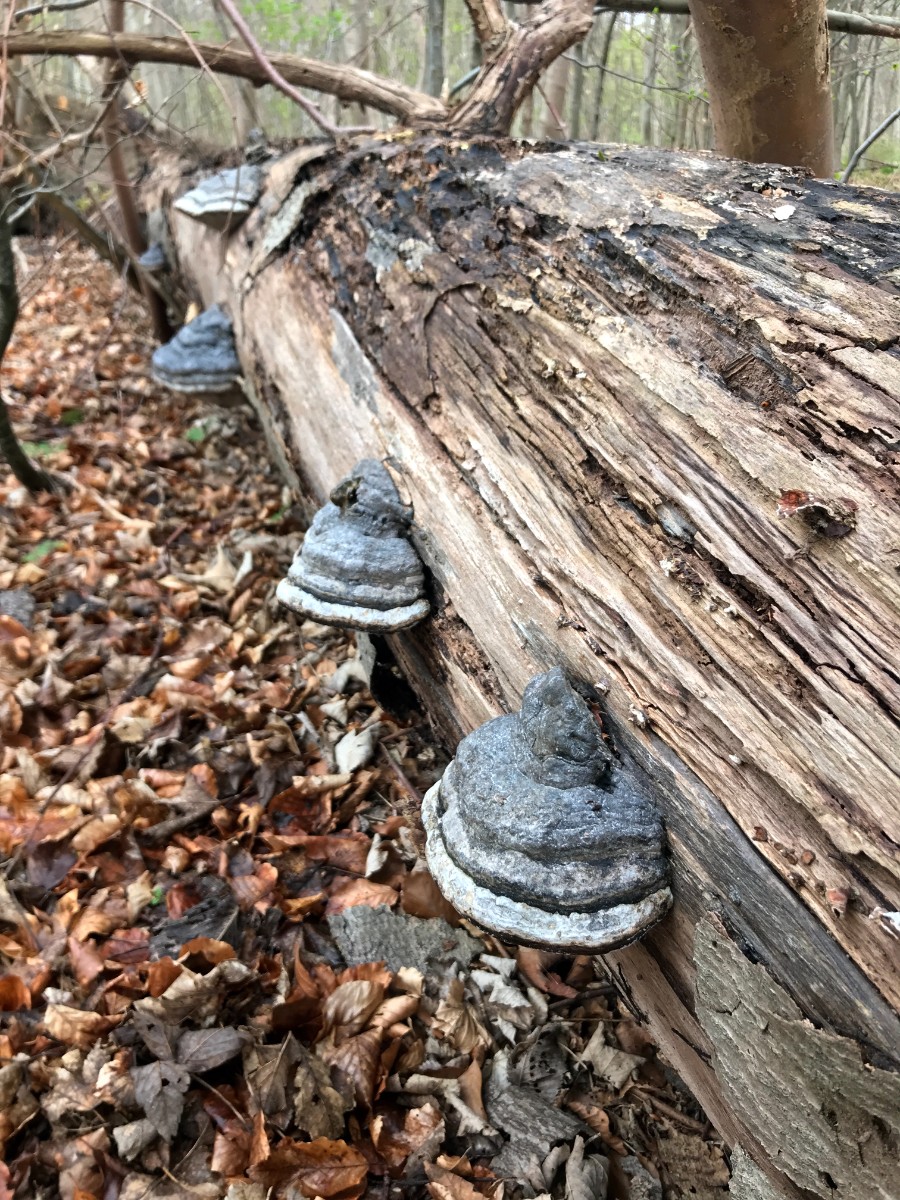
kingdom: Fungi
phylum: Basidiomycota
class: Agaricomycetes
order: Polyporales
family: Polyporaceae
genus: Fomes
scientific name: Fomes fomentarius
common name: tøndersvamp
